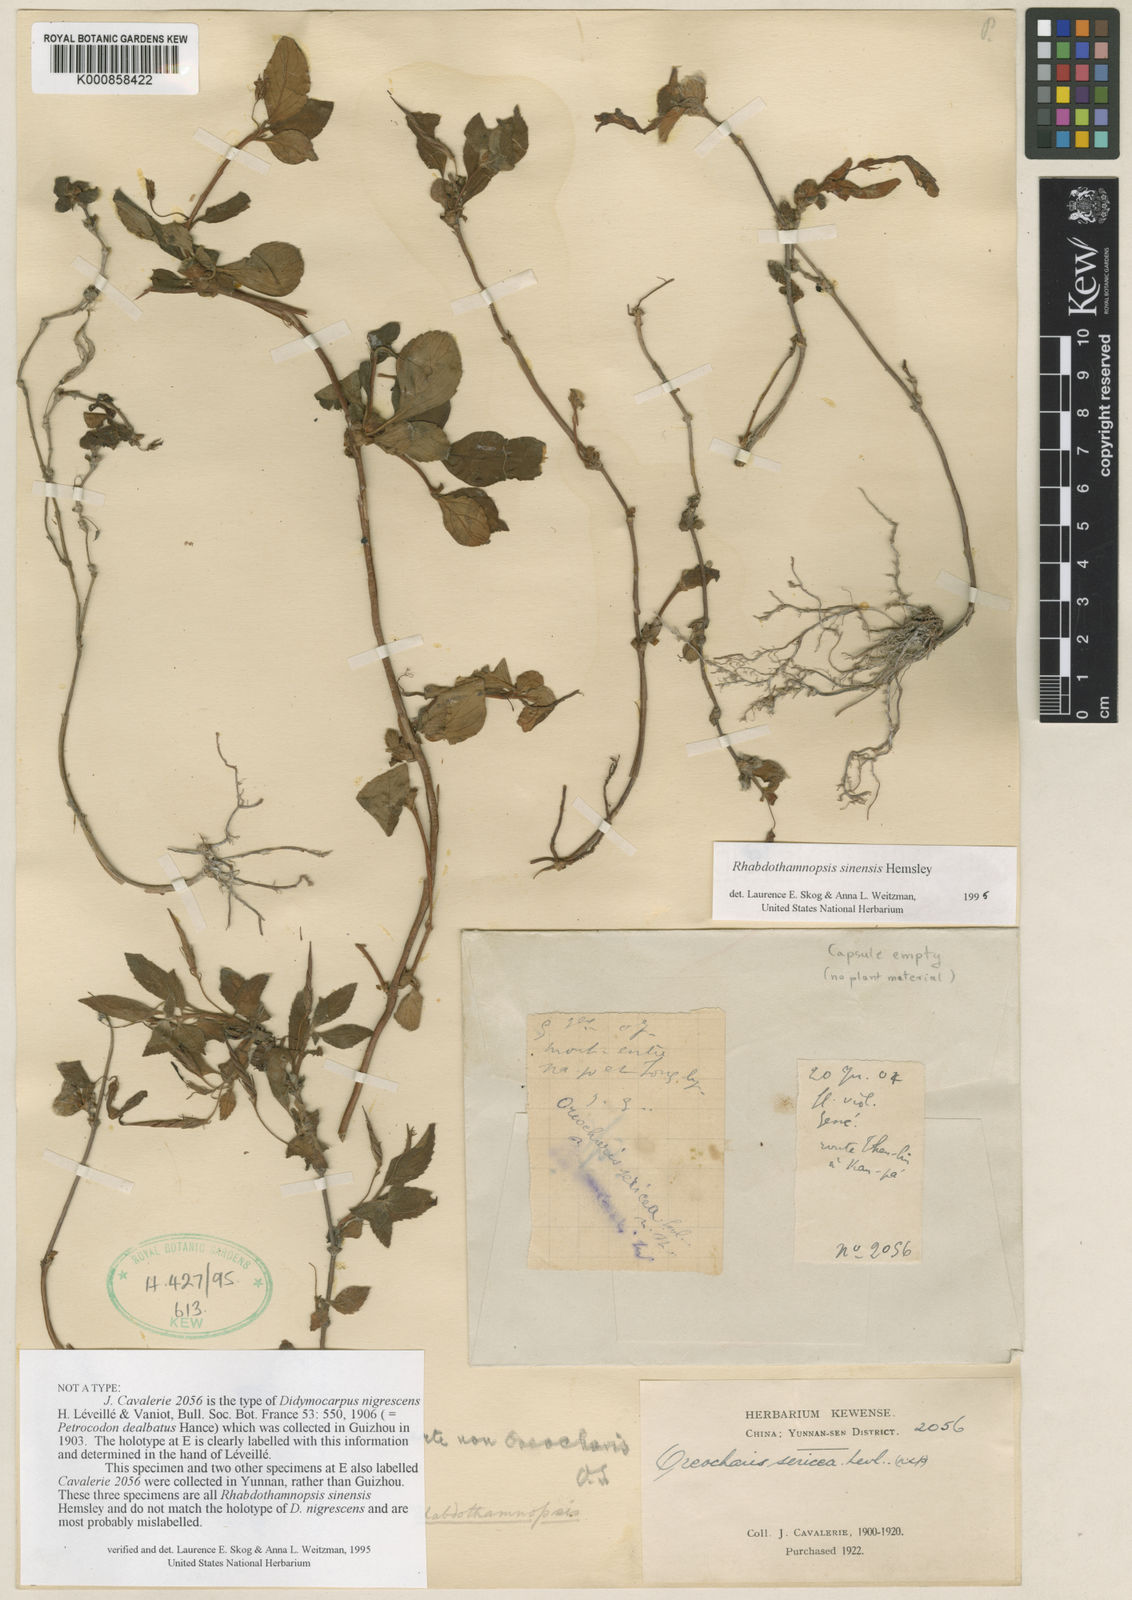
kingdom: Plantae
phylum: Tracheophyta
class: Magnoliopsida
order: Lamiales
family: Gesneriaceae
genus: Rhabdothamnopsis
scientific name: Rhabdothamnopsis sinensis
